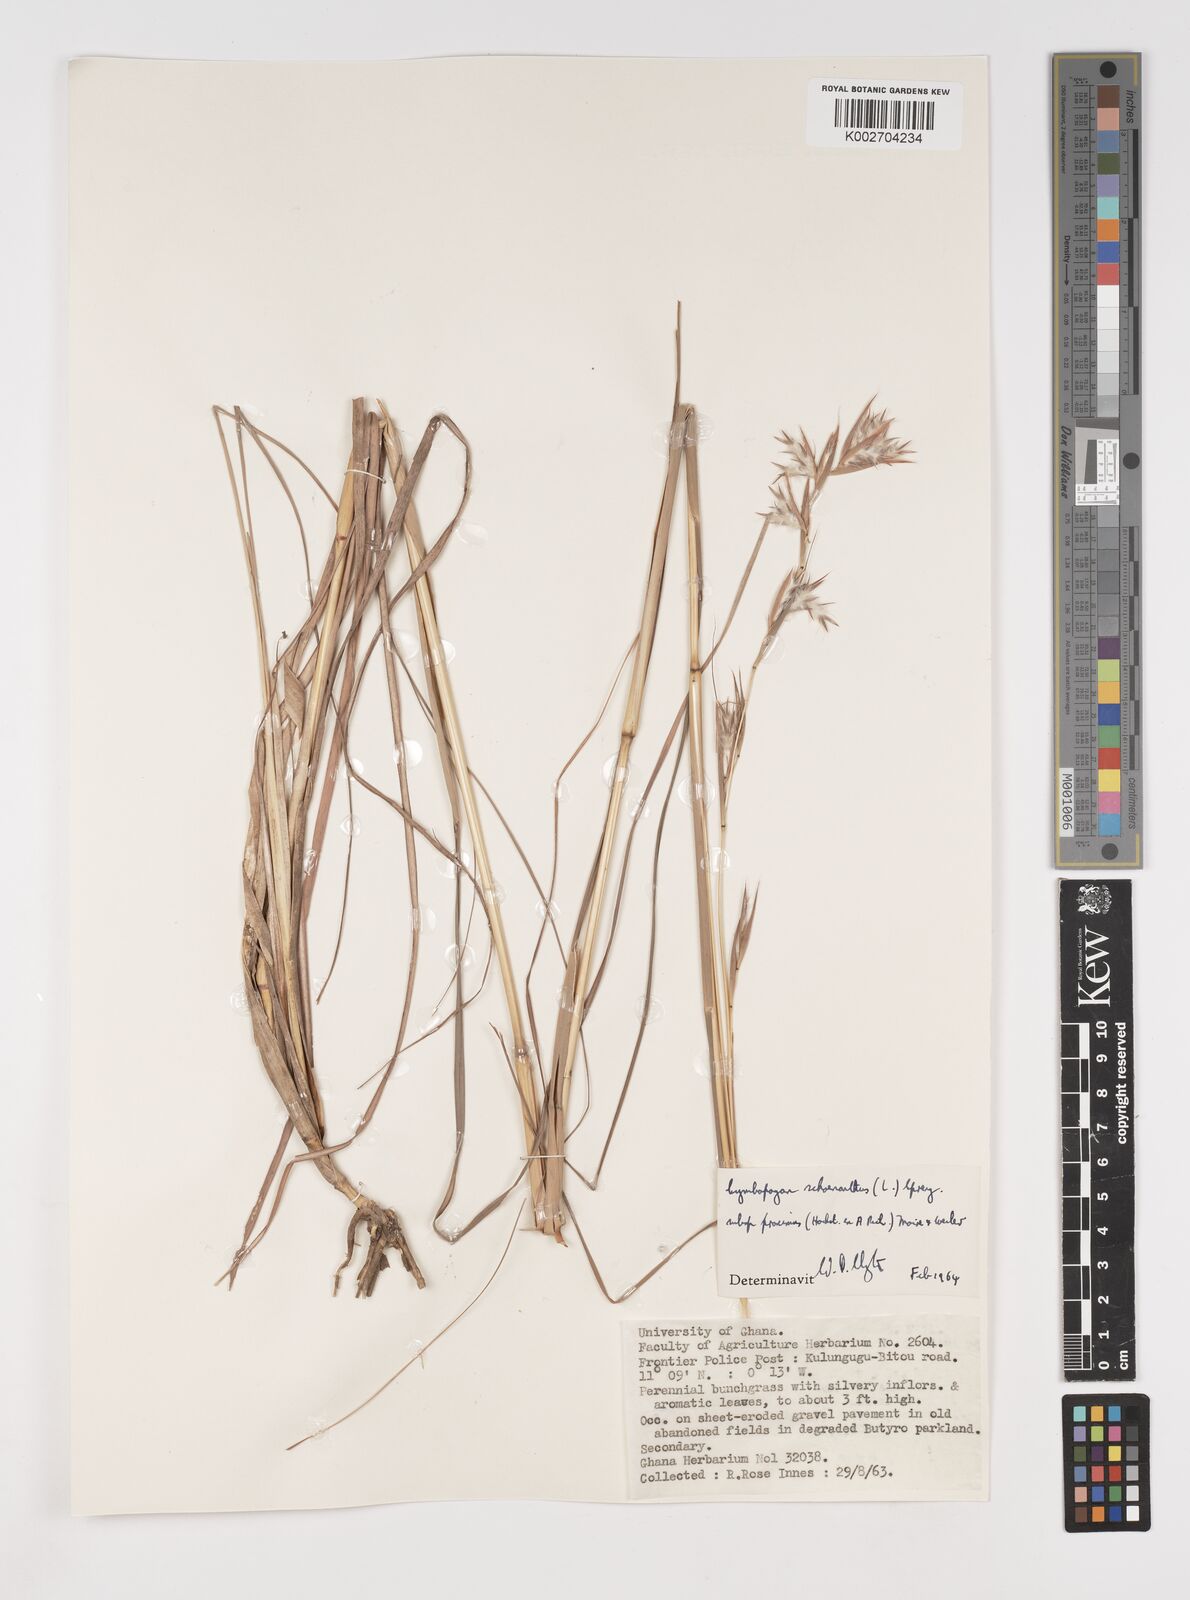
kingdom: Plantae
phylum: Tracheophyta
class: Liliopsida
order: Poales
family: Poaceae
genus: Cymbopogon
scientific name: Cymbopogon schoenanthus
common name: Geranium grass
